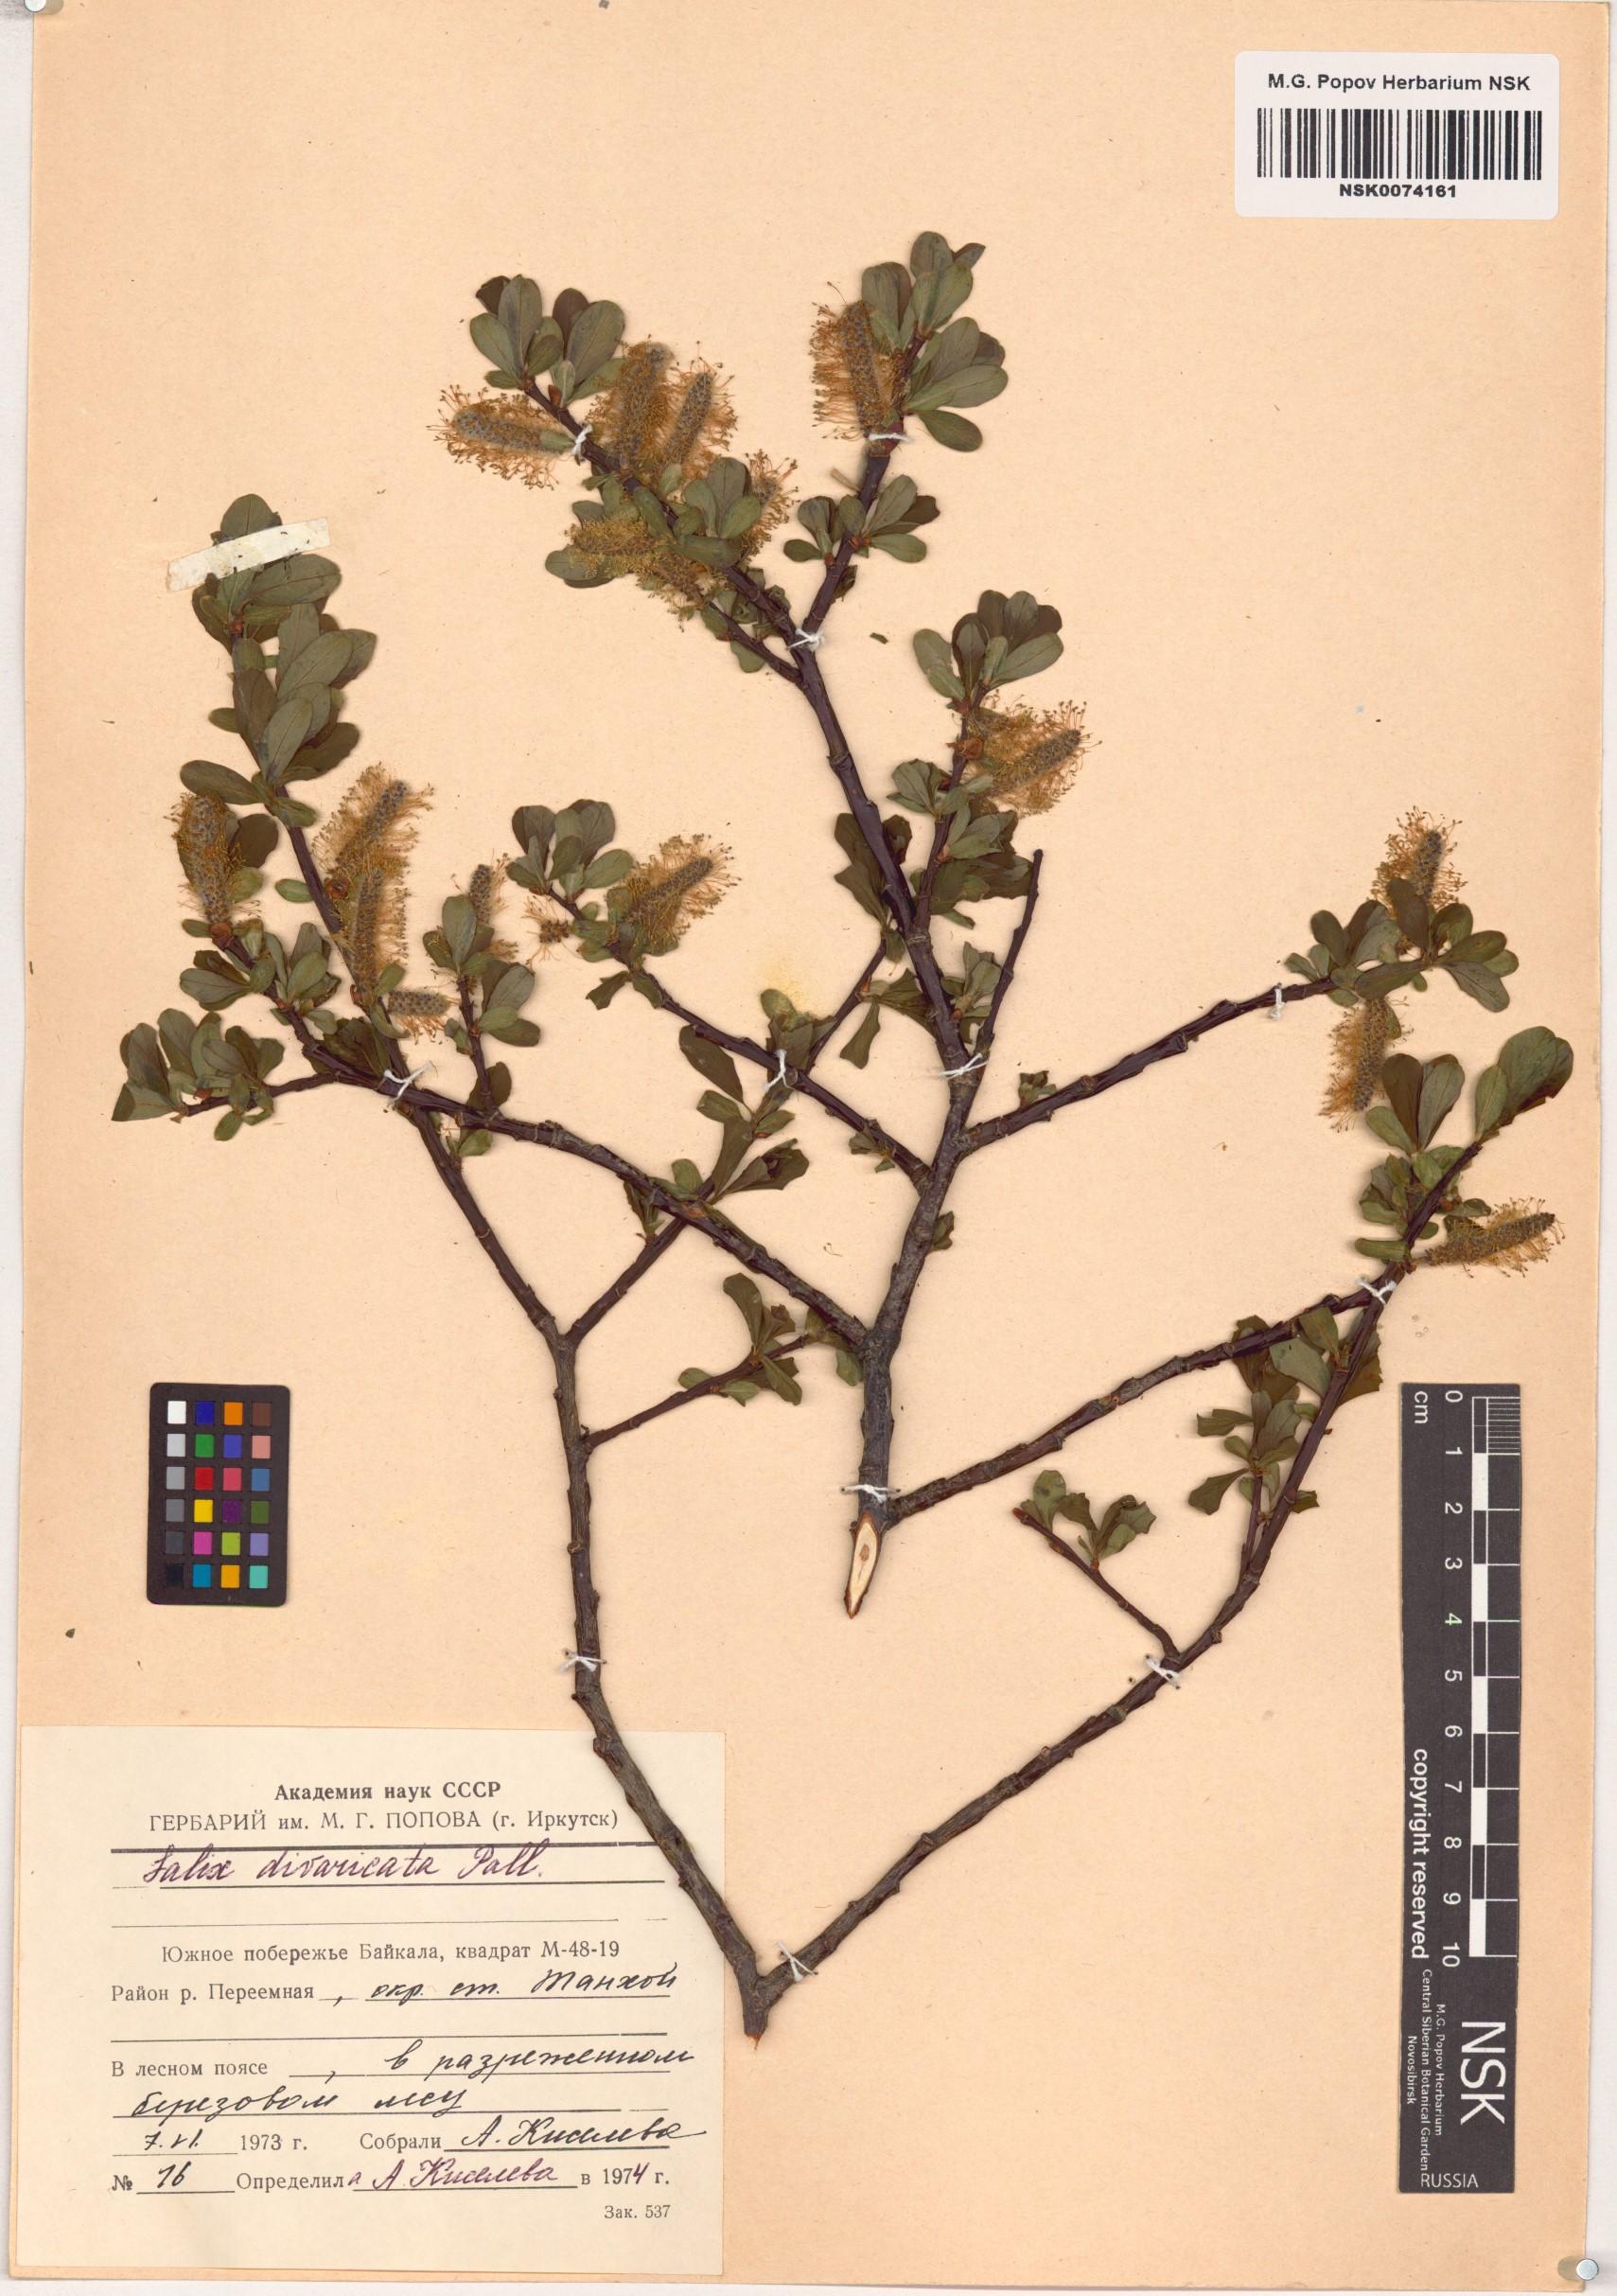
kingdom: Plantae
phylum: Tracheophyta
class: Magnoliopsida
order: Malpighiales
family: Salicaceae
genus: Salix
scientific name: Salix divaricata
